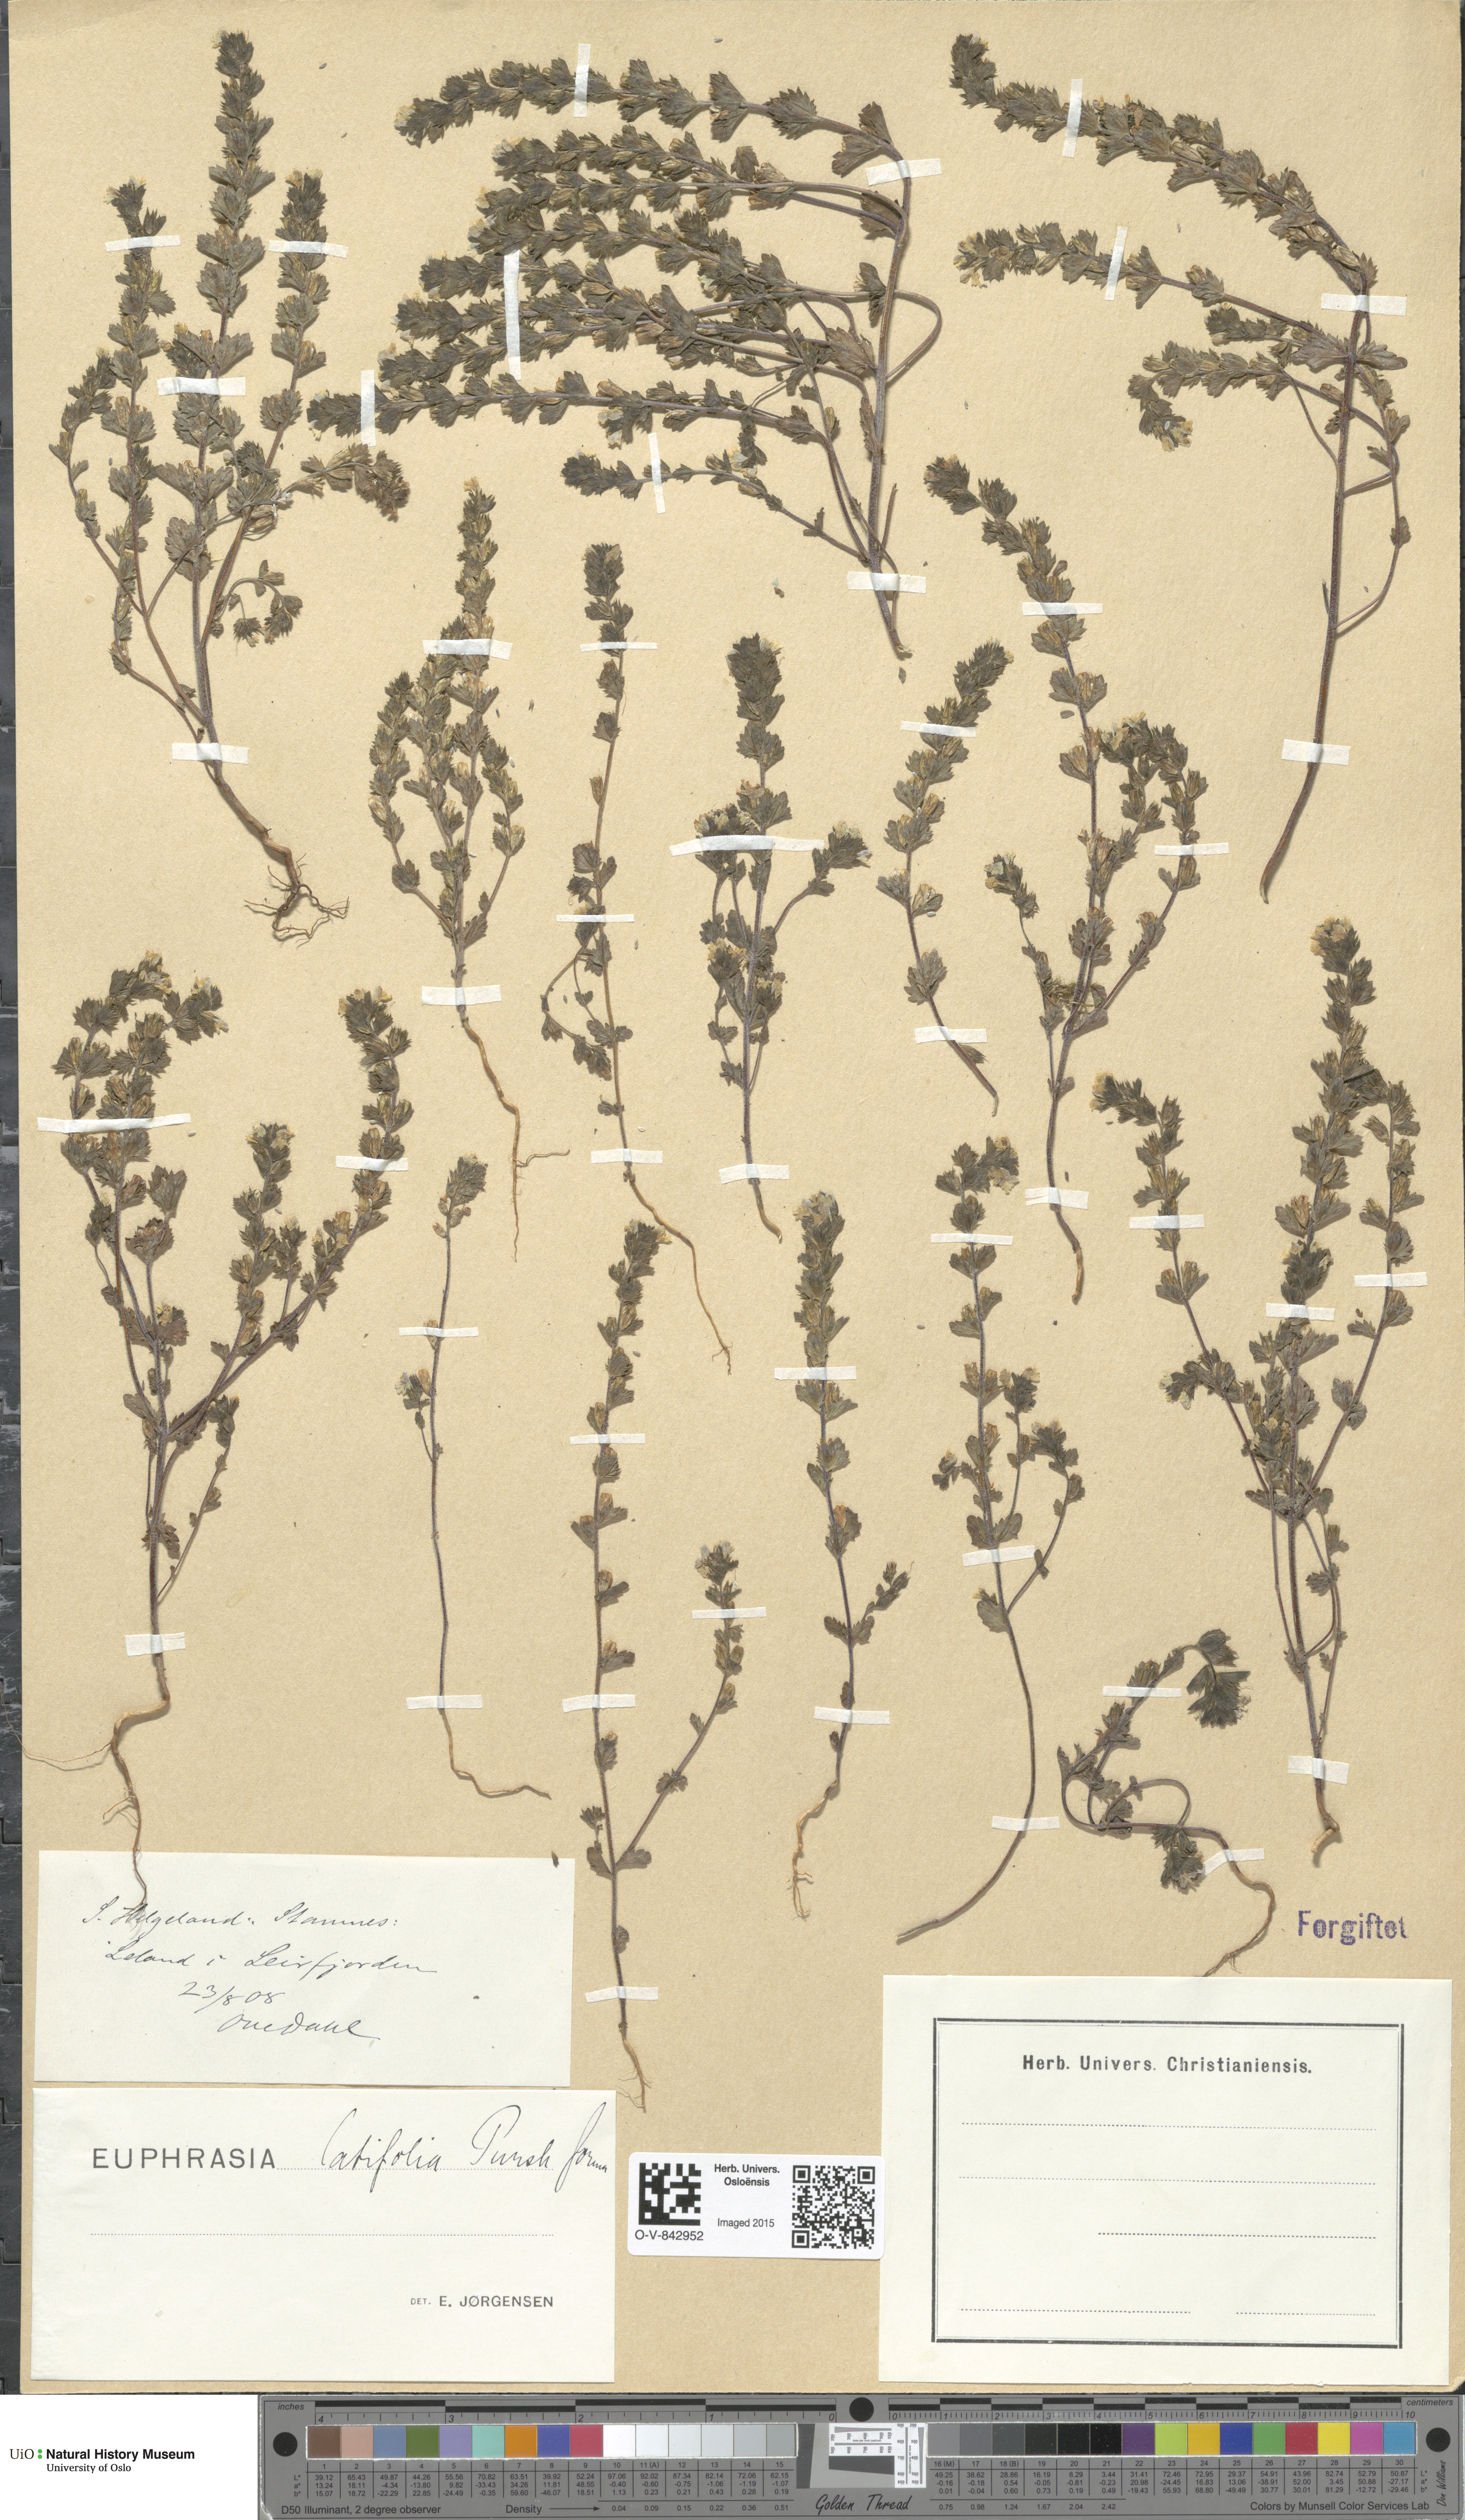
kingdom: Plantae
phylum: Tracheophyta
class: Magnoliopsida
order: Lamiales
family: Orobanchaceae
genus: Euphrasia
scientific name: Euphrasia wettsteinii
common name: Wettstein's eyebright
